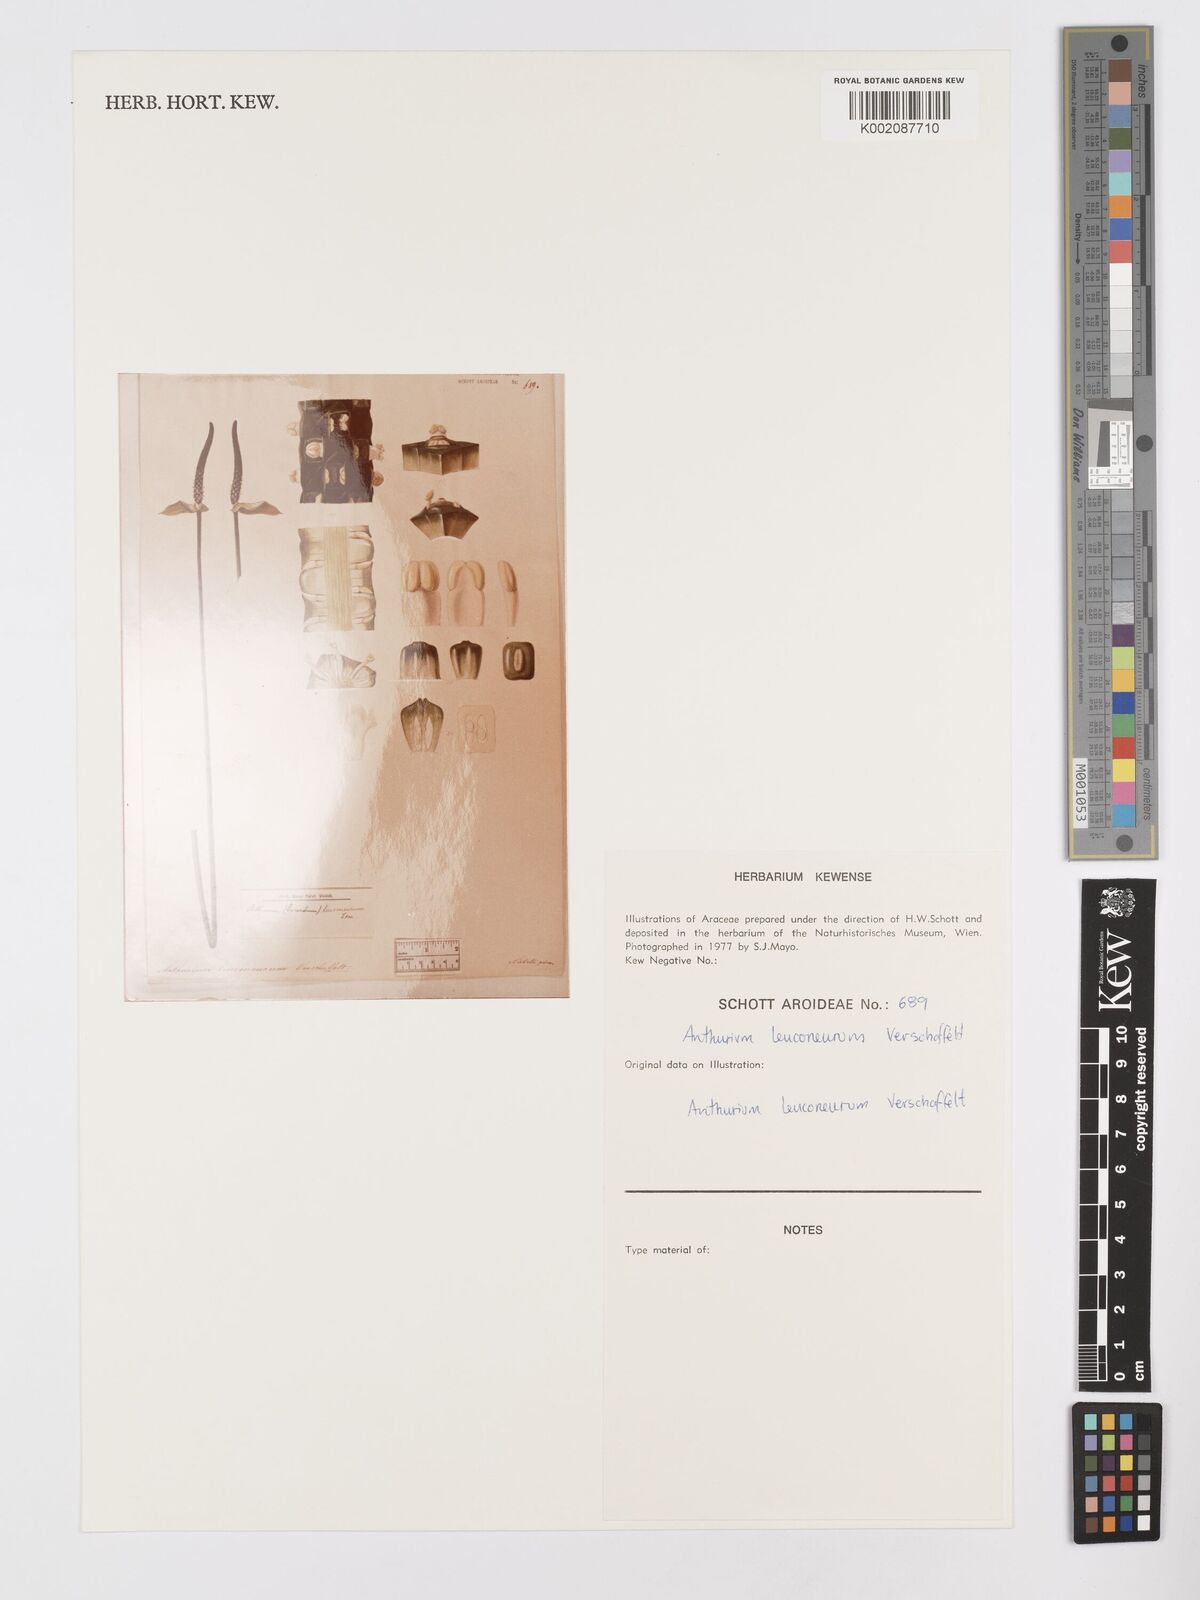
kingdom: Plantae
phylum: Tracheophyta
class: Liliopsida
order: Alismatales
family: Araceae
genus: Anthurium
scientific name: Anthurium leuconeurum
